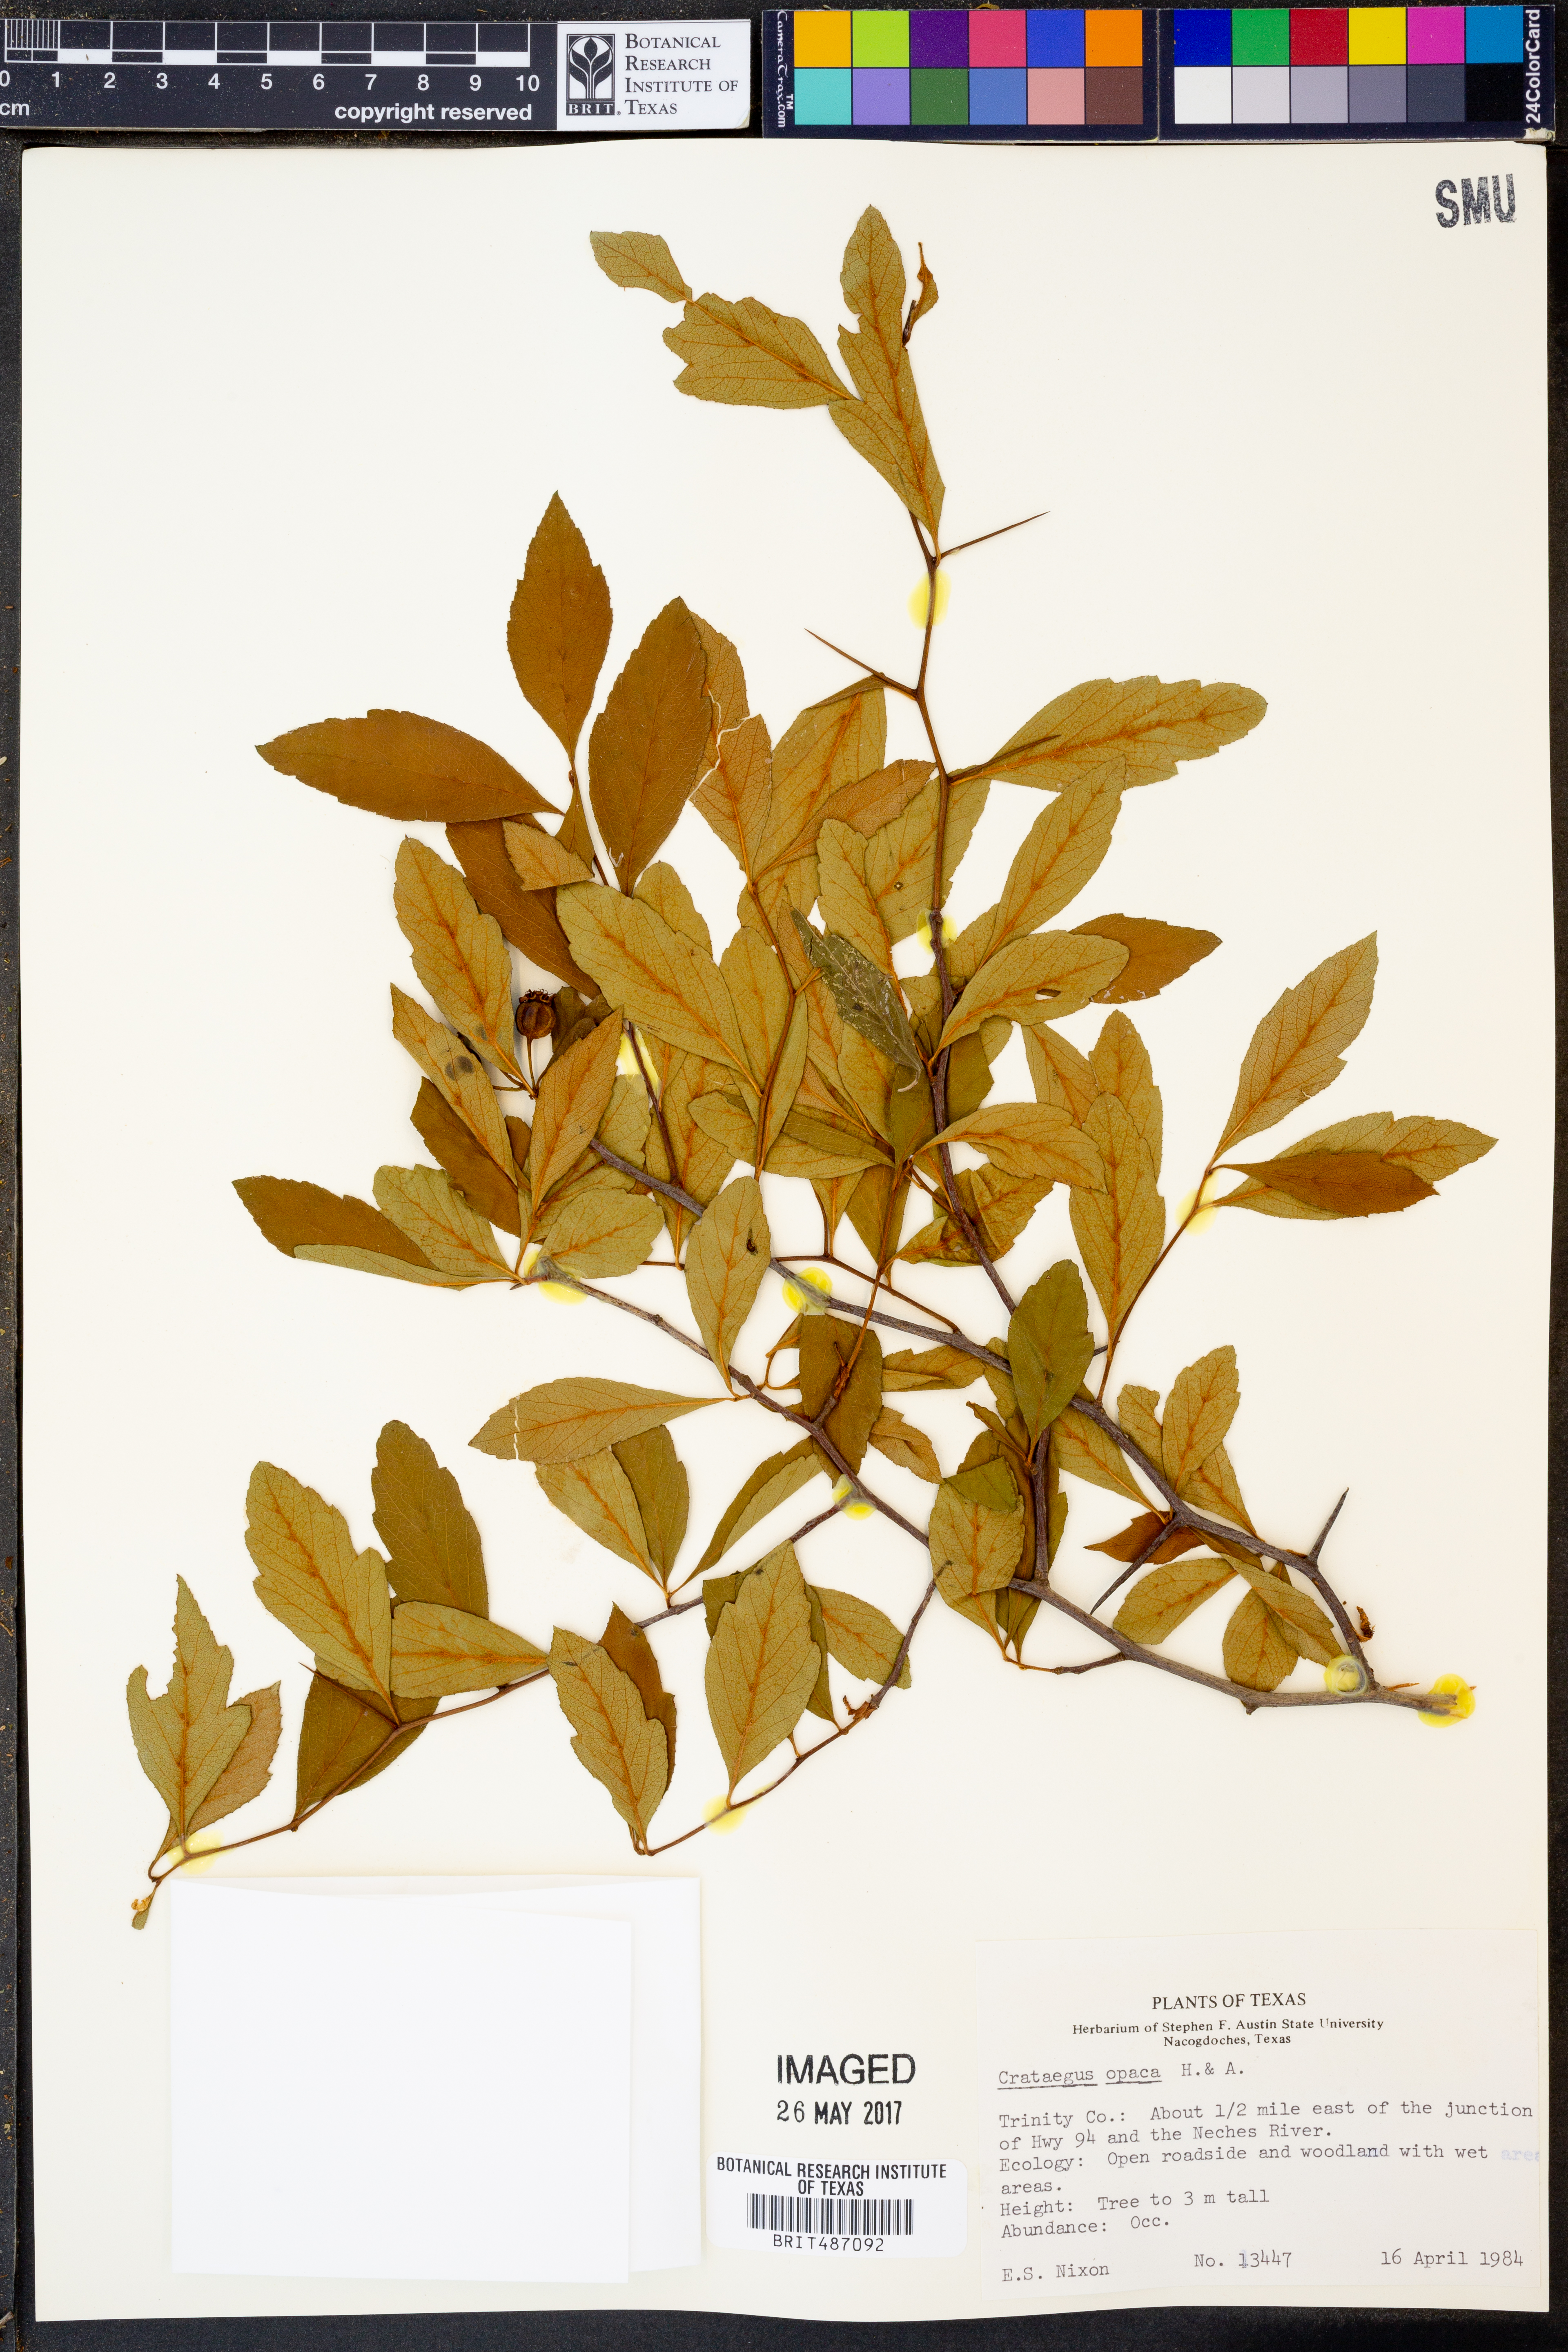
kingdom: Plantae
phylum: Tracheophyta
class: Magnoliopsida
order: Rosales
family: Rosaceae
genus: Crataegus
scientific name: Crataegus opaca
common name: Apple haw
